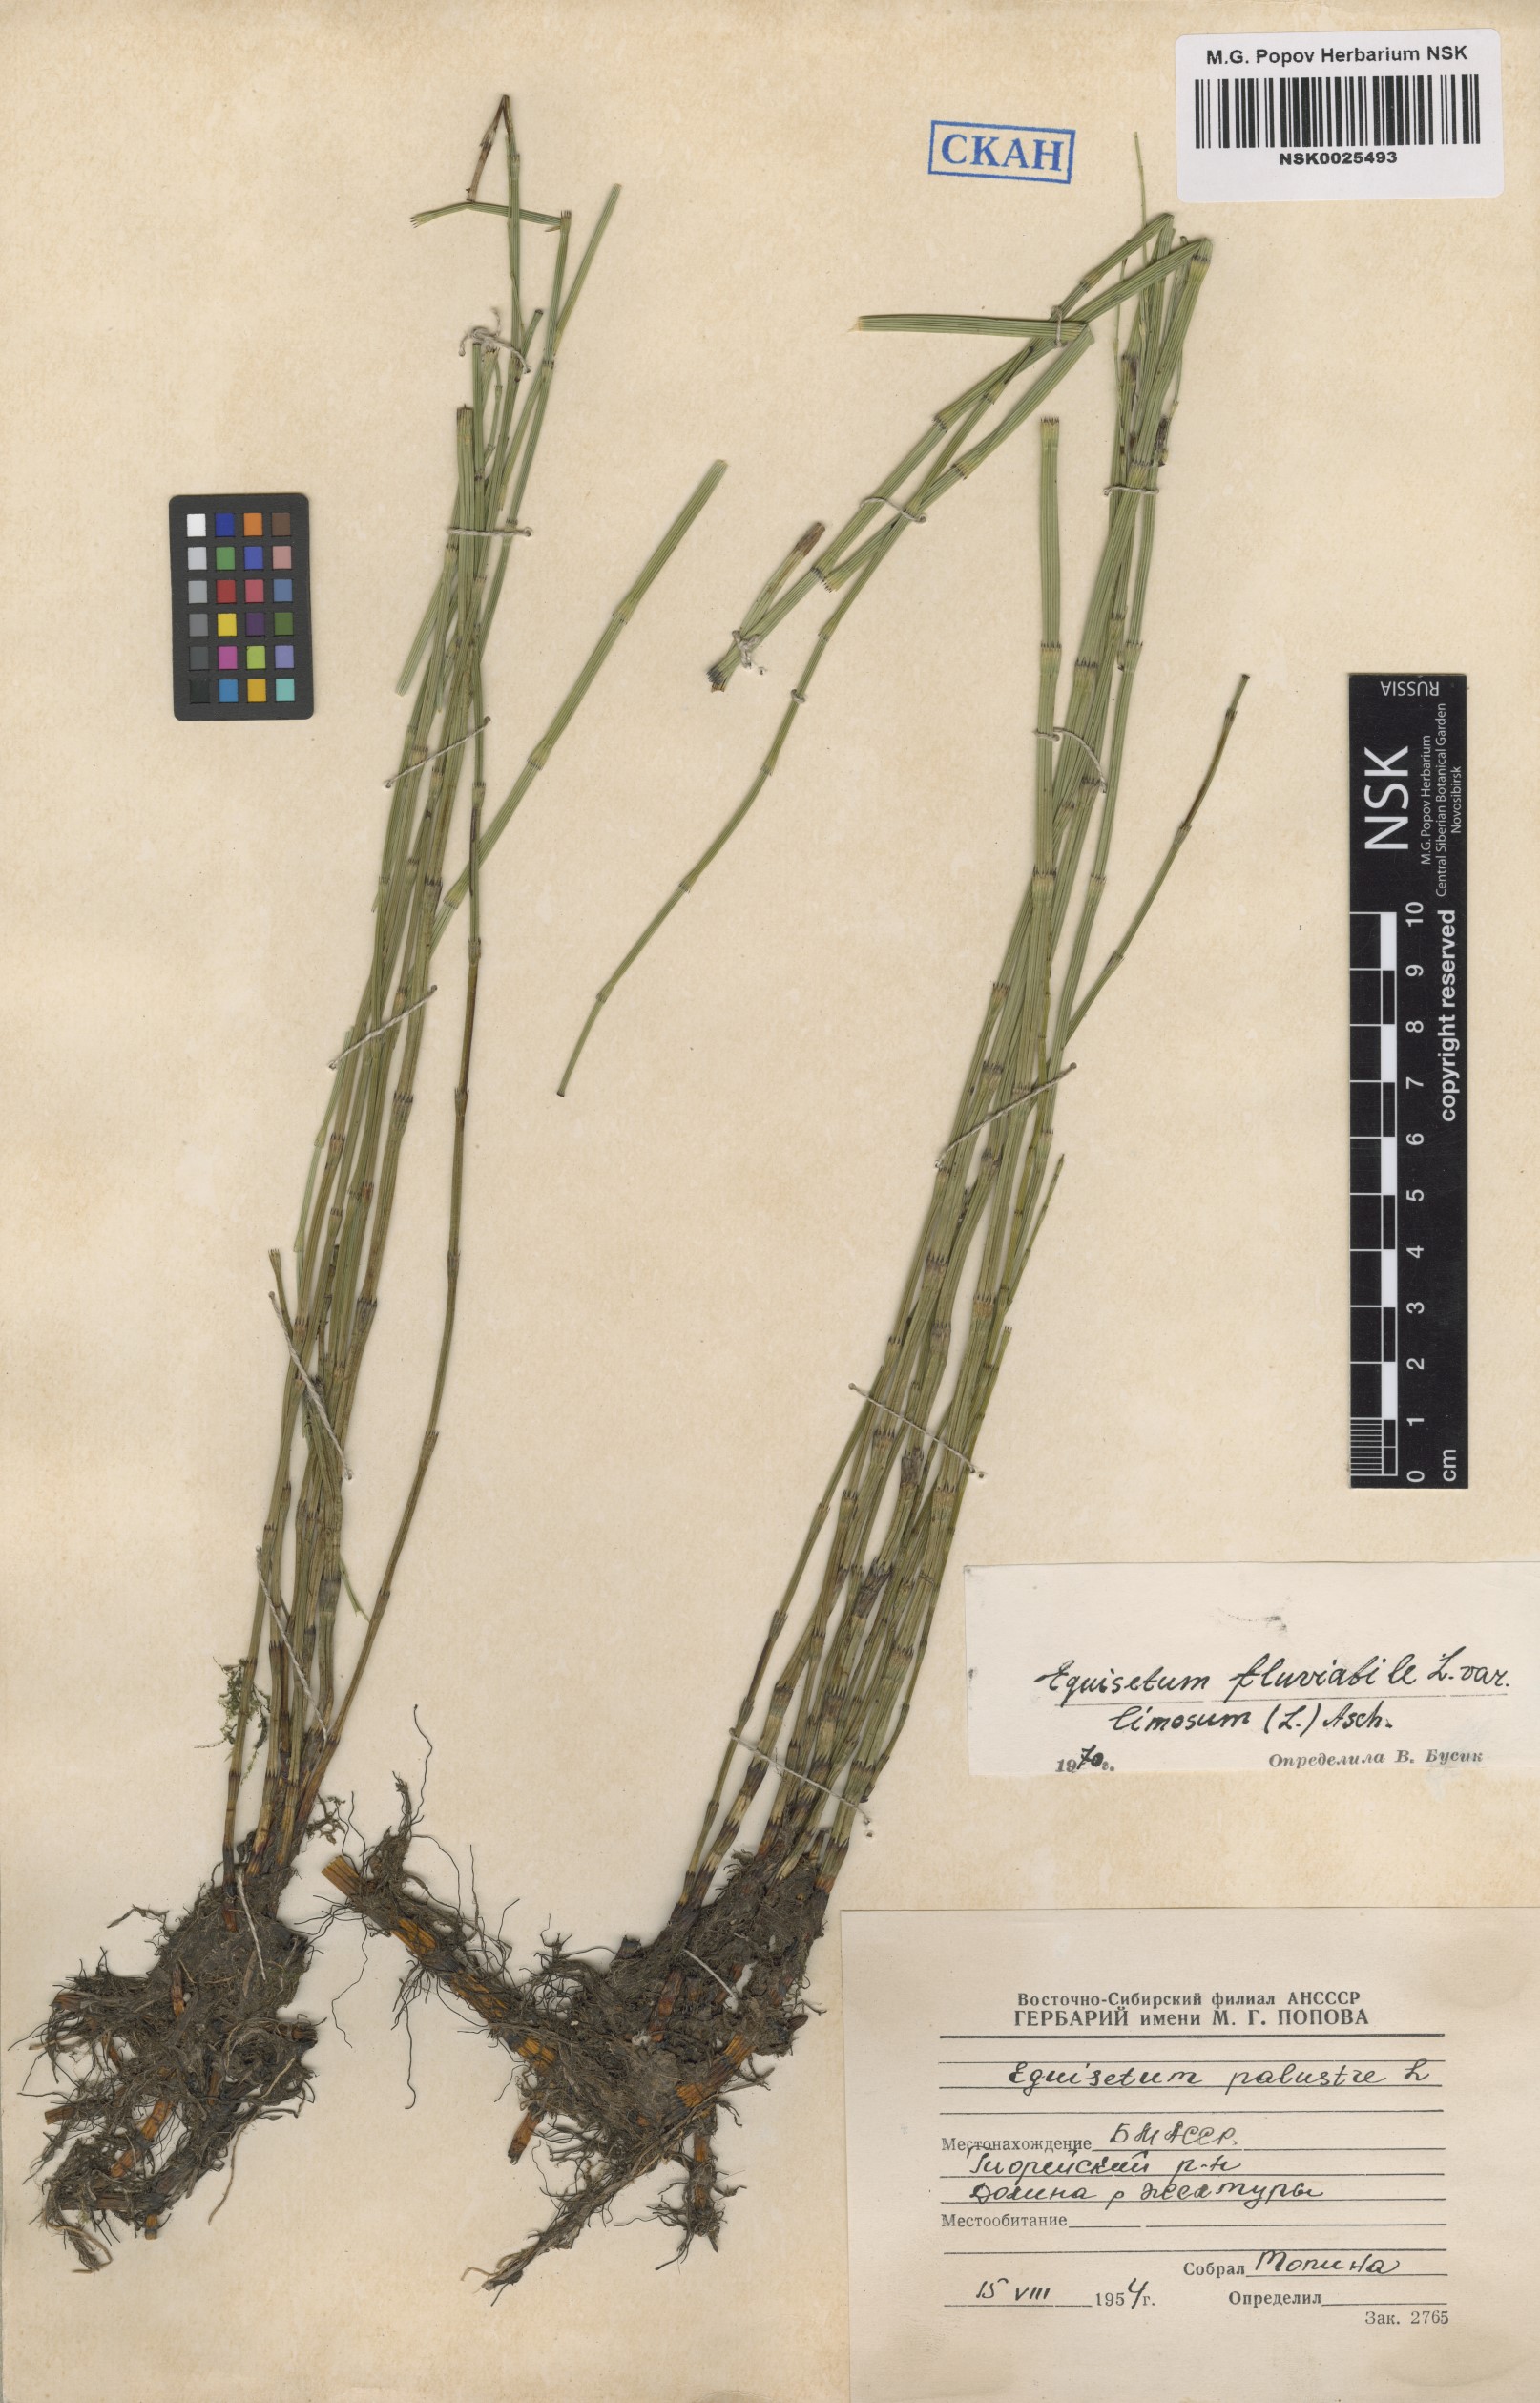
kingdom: Plantae
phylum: Tracheophyta
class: Polypodiopsida
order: Equisetales
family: Equisetaceae
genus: Equisetum
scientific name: Equisetum fluviatile
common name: Water horsetail
